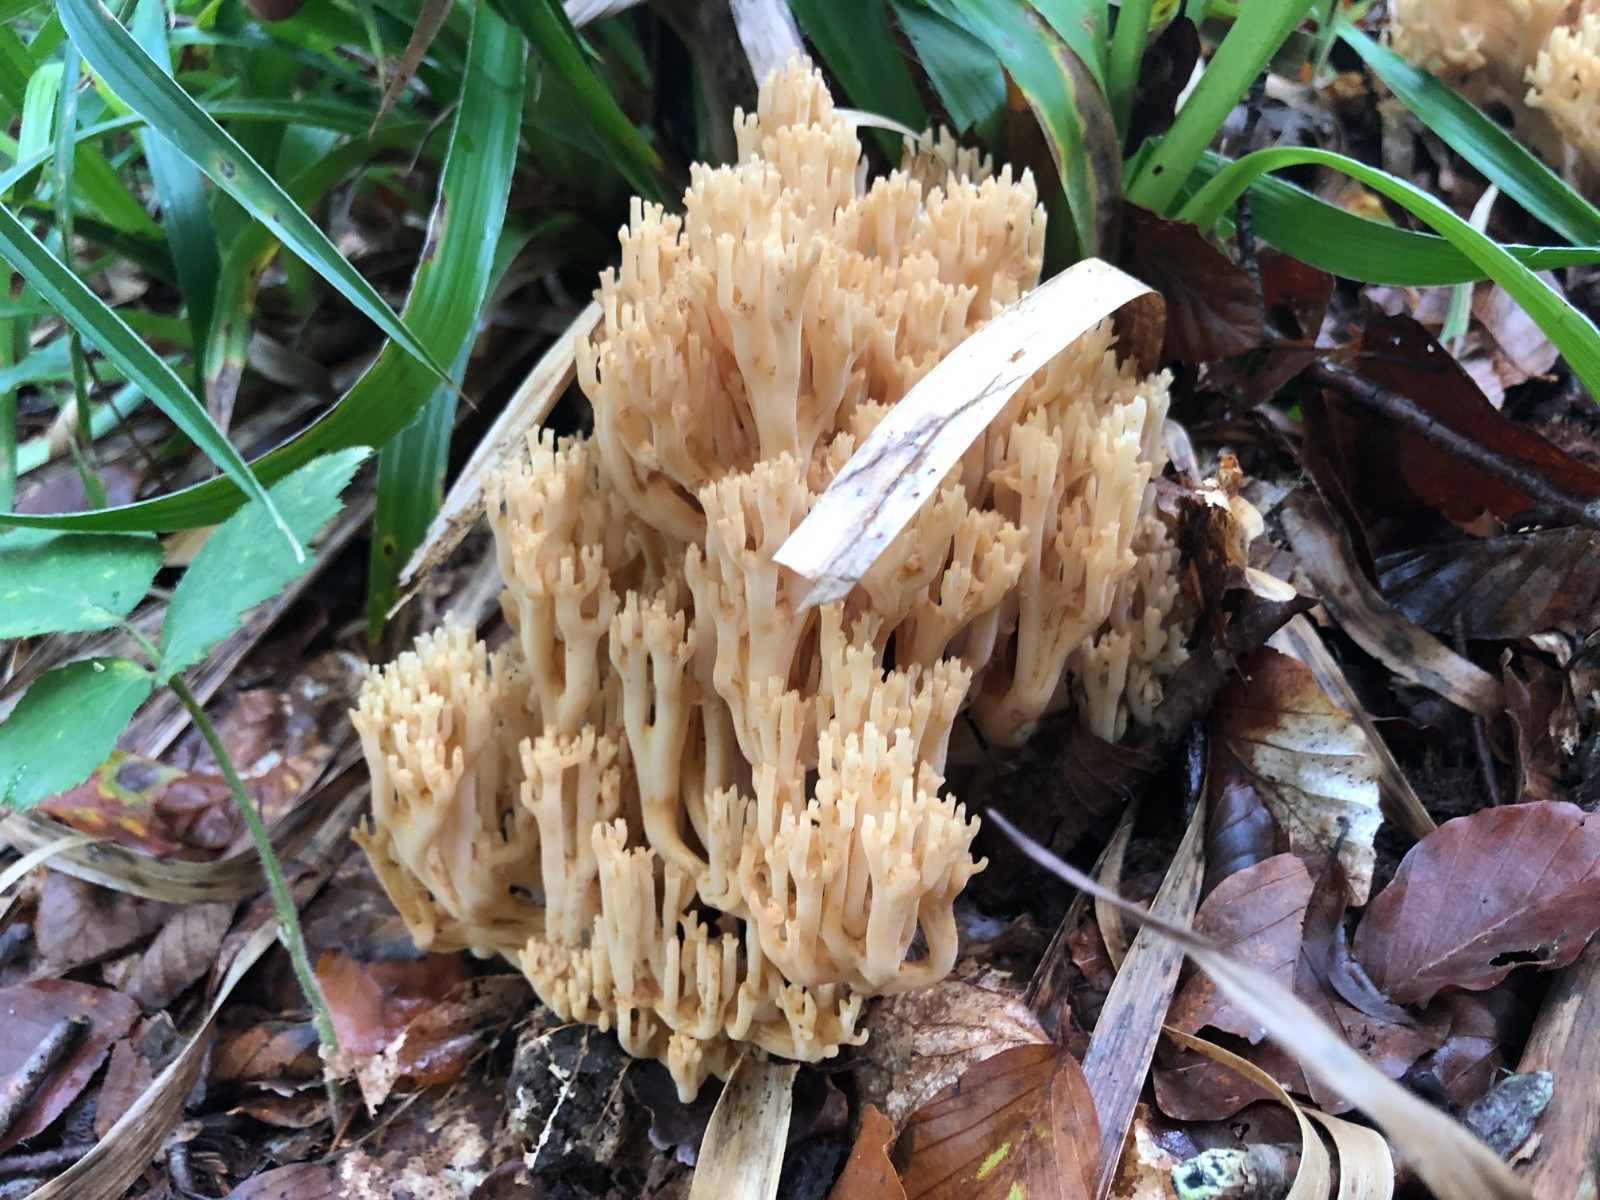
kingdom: Fungi
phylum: Basidiomycota
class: Agaricomycetes
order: Gomphales
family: Gomphaceae
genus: Ramaria
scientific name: Ramaria flavescens
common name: stor koralsvamp
